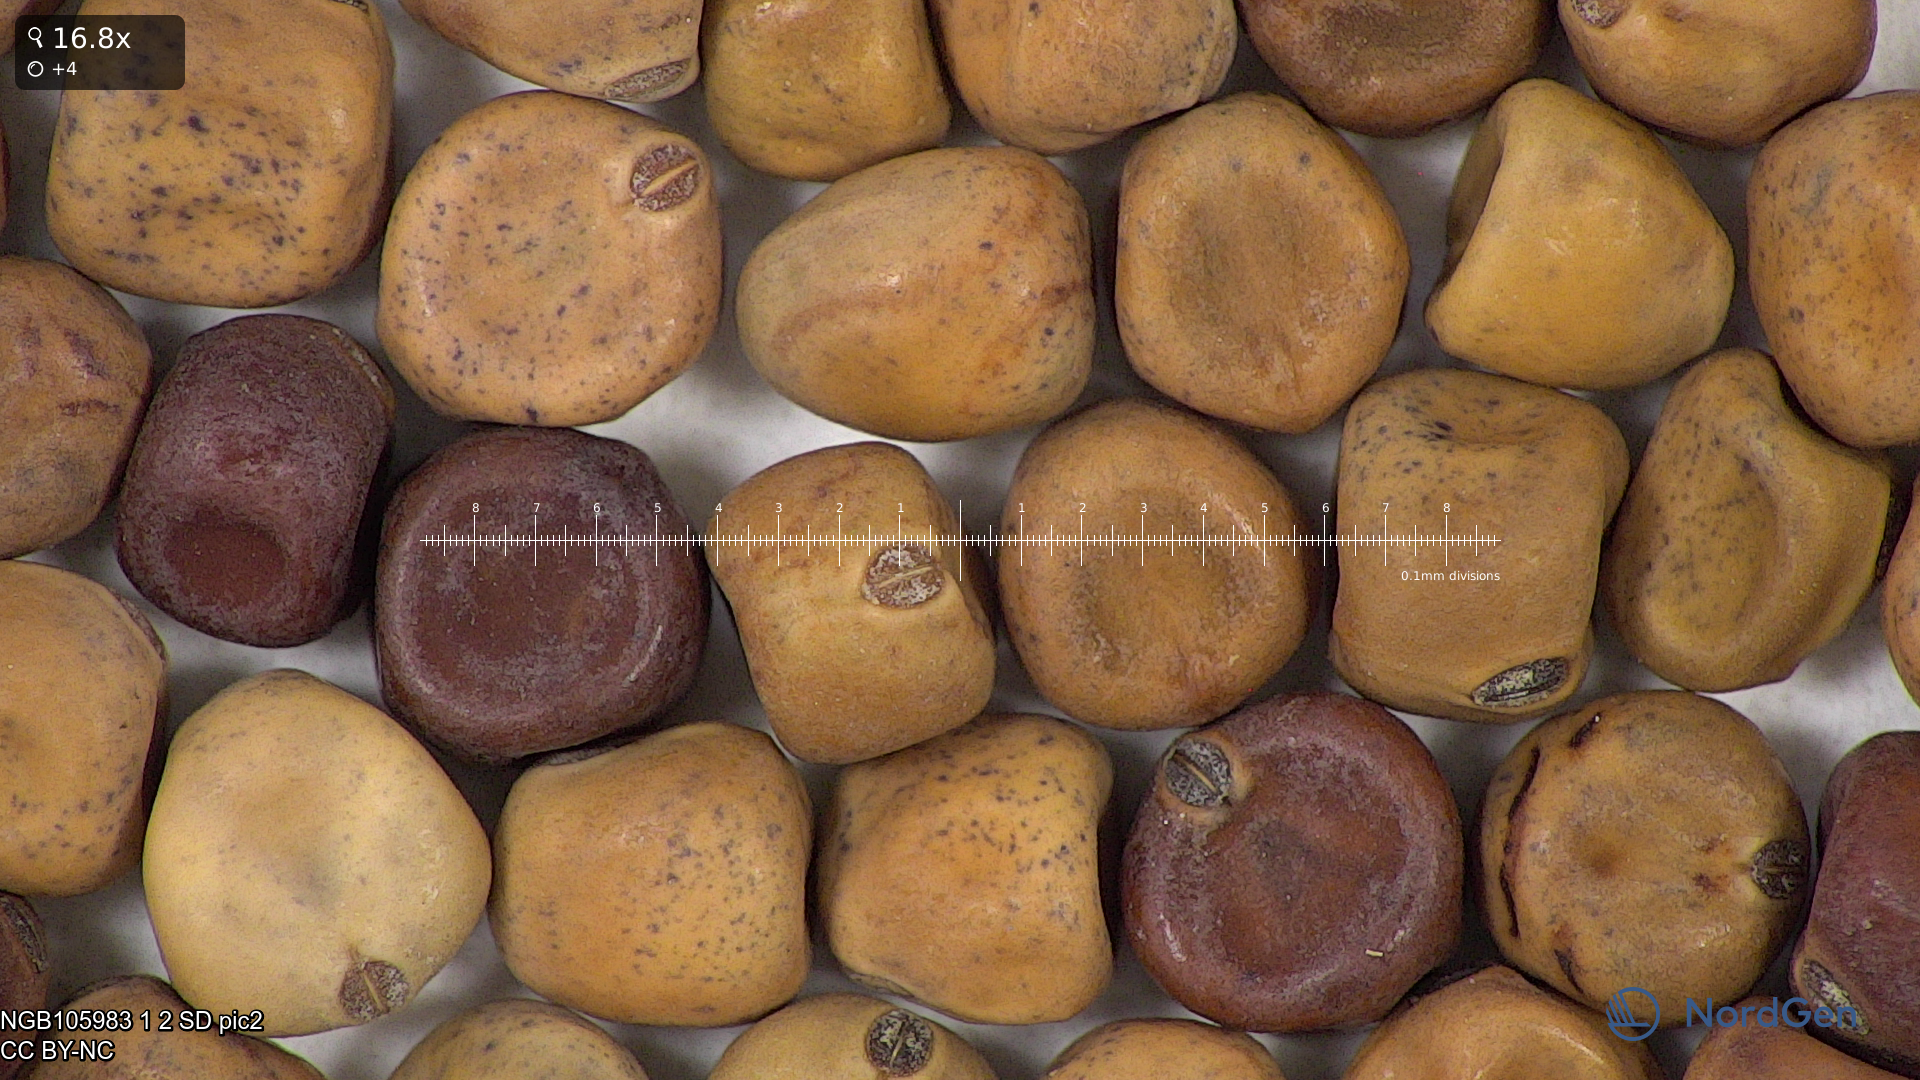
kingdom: Plantae
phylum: Tracheophyta
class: Magnoliopsida
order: Fabales
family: Fabaceae
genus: Lathyrus
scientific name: Lathyrus oleraceus
